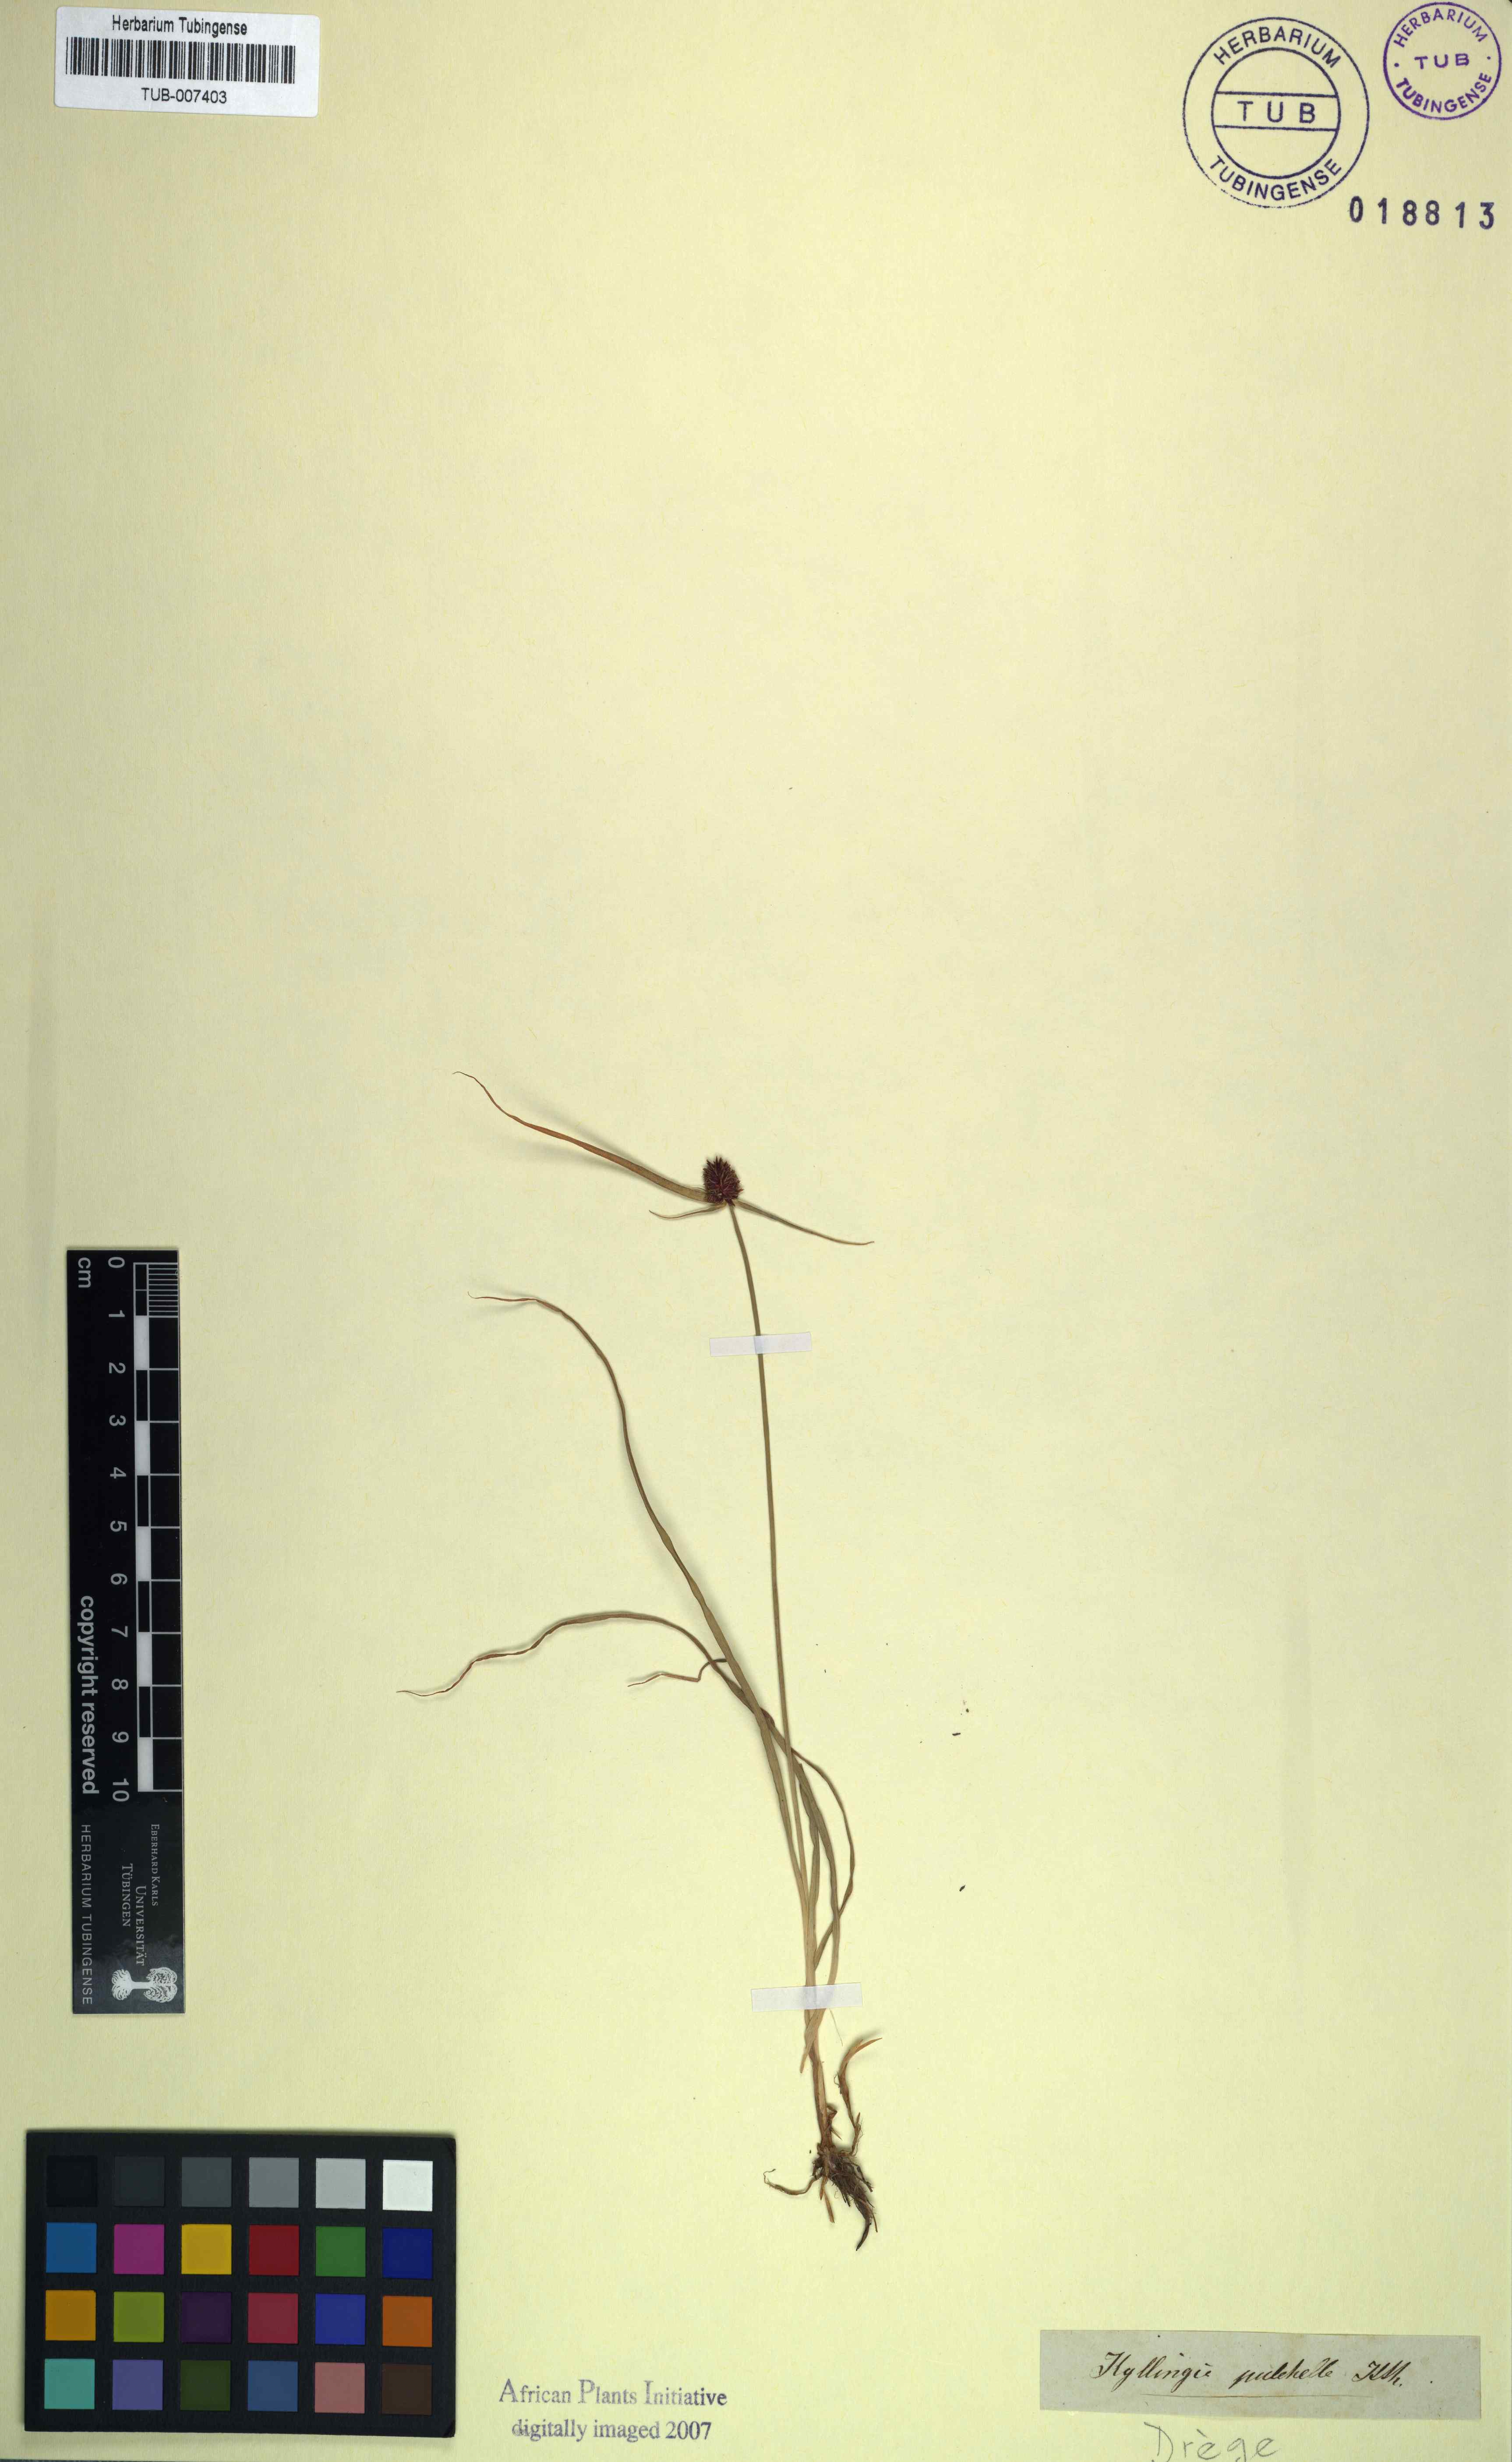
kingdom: Plantae
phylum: Tracheophyta
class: Liliopsida
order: Poales
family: Cyperaceae
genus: Cyperus
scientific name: Cyperus bracheilema
